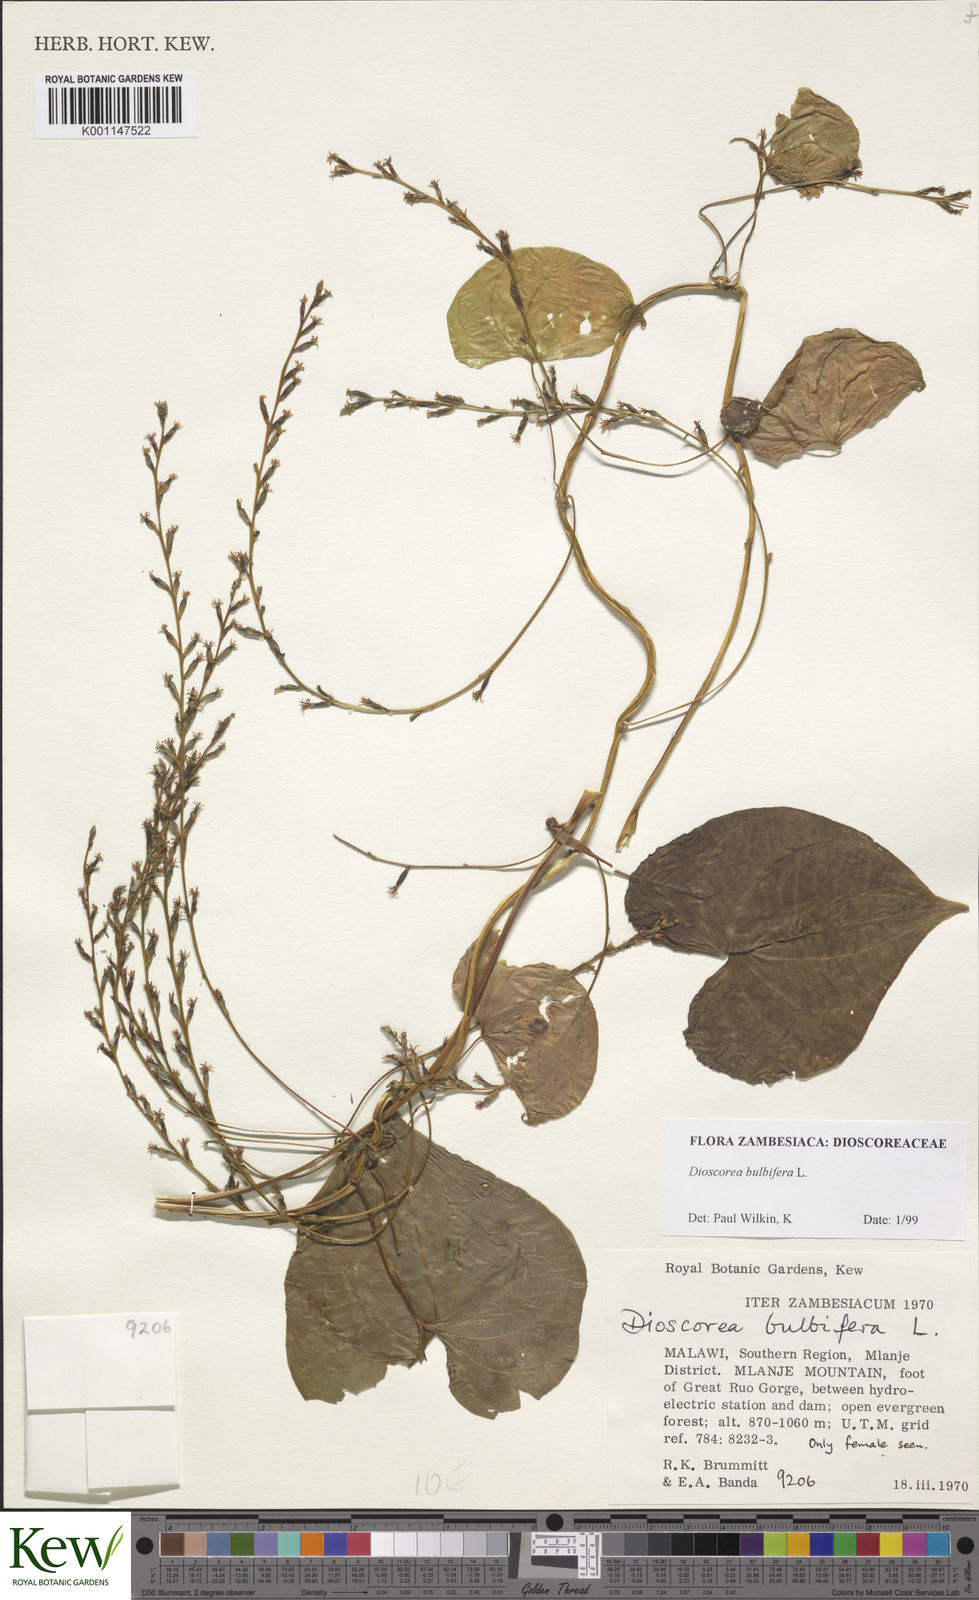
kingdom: Plantae
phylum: Tracheophyta
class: Liliopsida
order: Dioscoreales
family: Dioscoreaceae
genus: Dioscorea
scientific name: Dioscorea bulbifera
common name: Air yam
